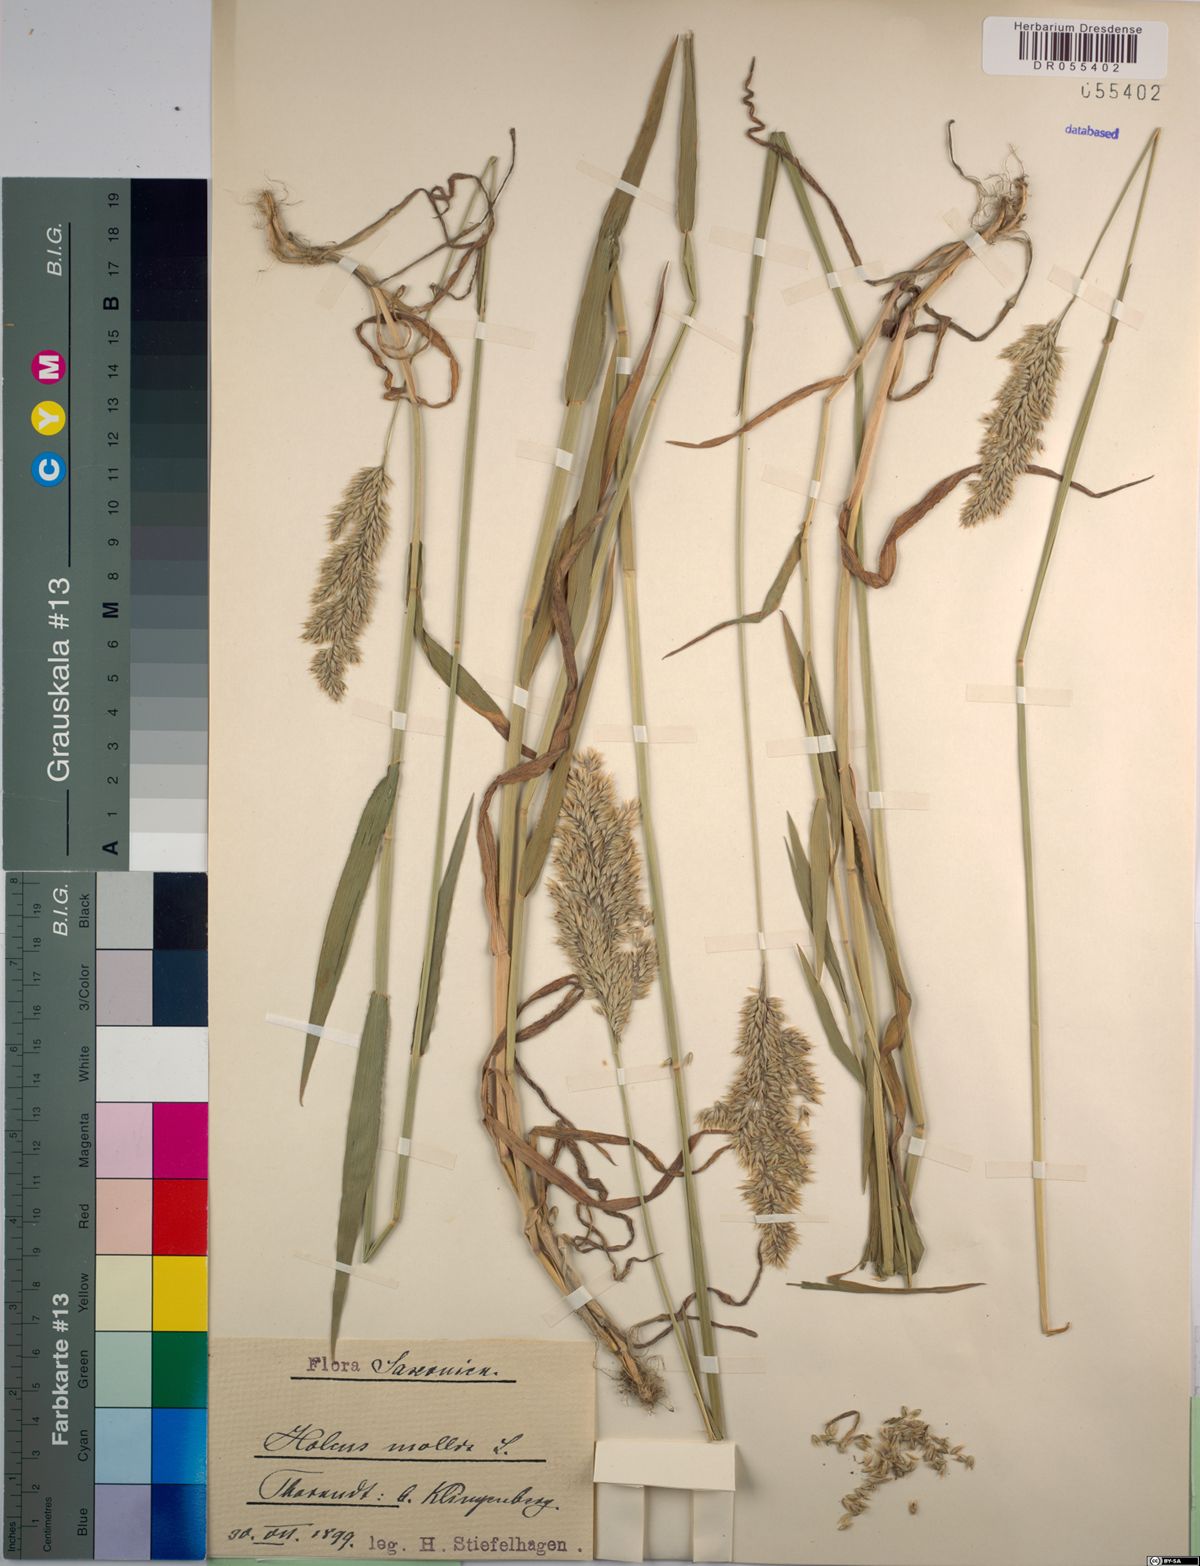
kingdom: Plantae
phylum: Tracheophyta
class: Liliopsida
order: Poales
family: Poaceae
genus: Holcus
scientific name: Holcus mollis
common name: Creeping velvetgrass
